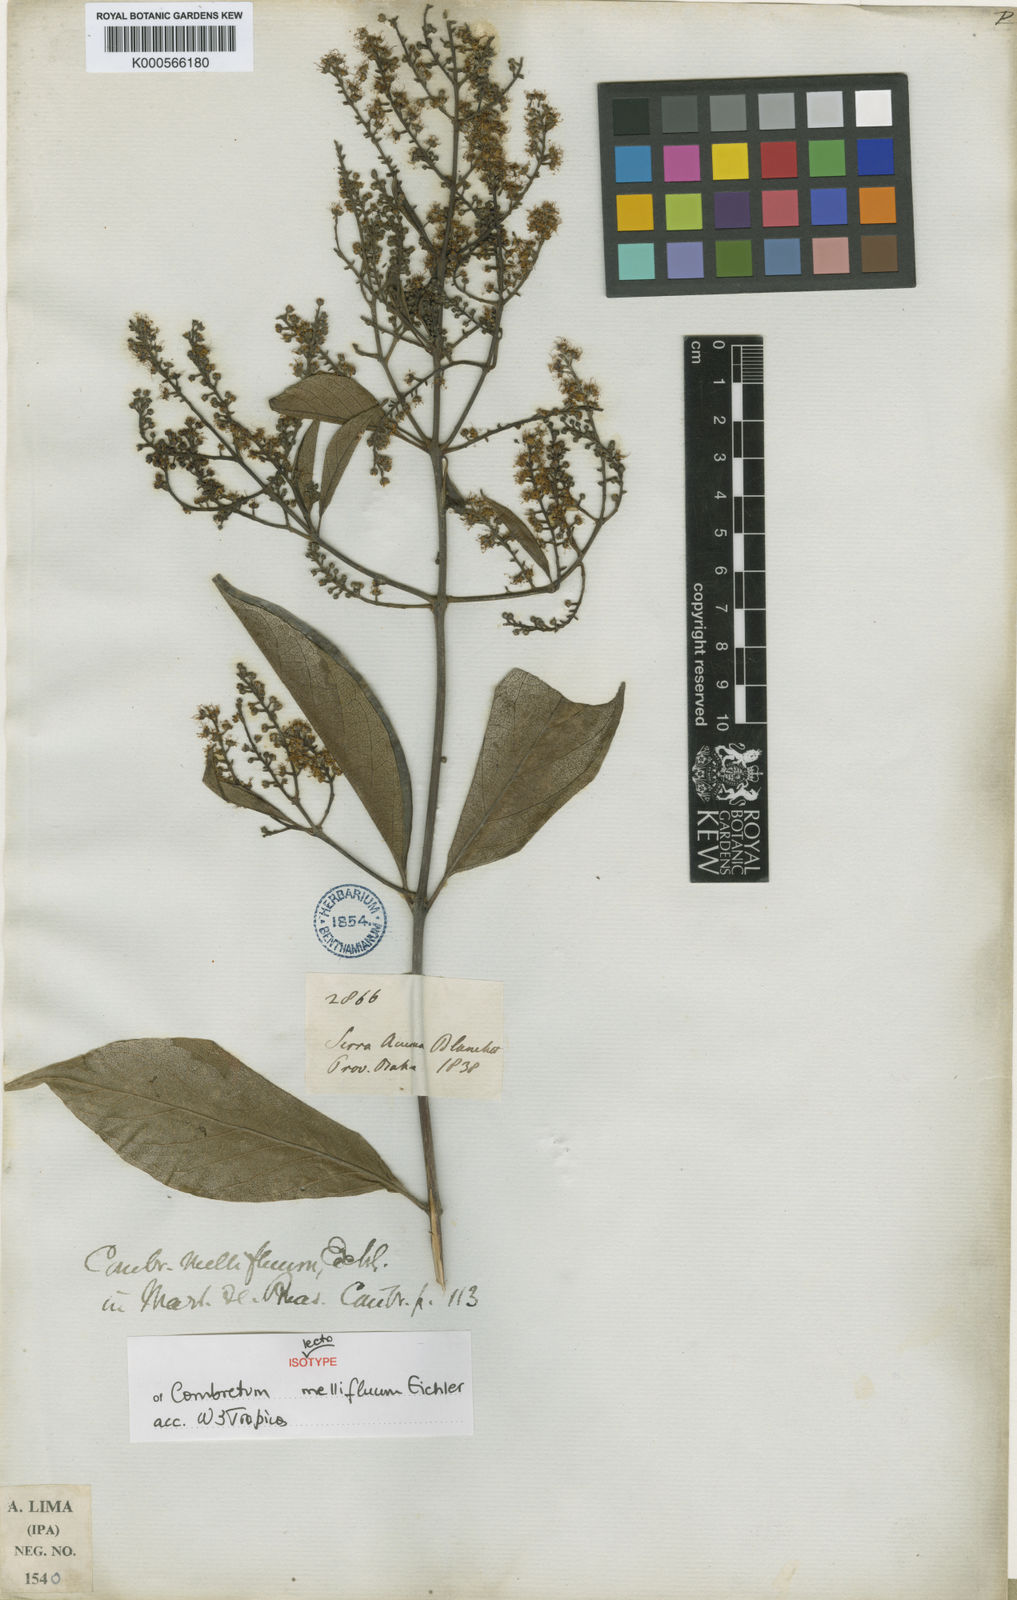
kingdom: Plantae
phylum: Tracheophyta
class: Magnoliopsida
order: Myrtales
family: Combretaceae
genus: Combretum
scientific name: Combretum mellifluum
